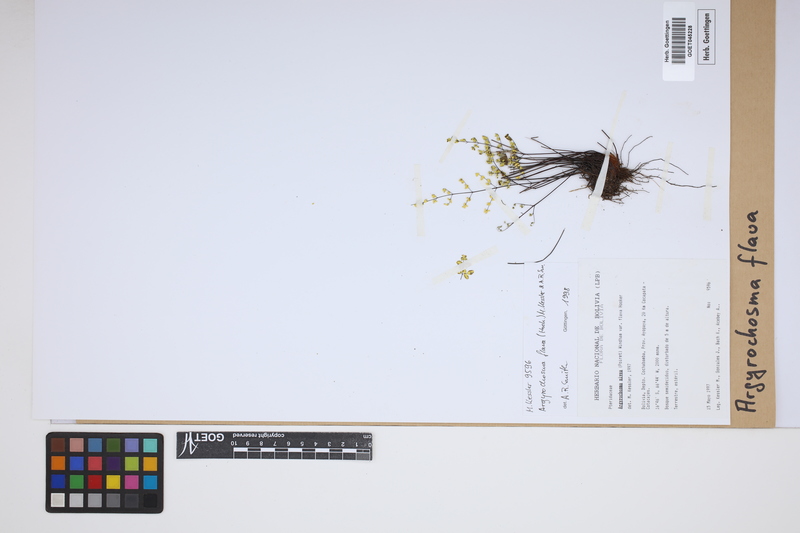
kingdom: Plantae
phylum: Tracheophyta
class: Polypodiopsida
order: Polypodiales
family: Pteridaceae
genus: Argyrochosma
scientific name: Argyrochosma flava
